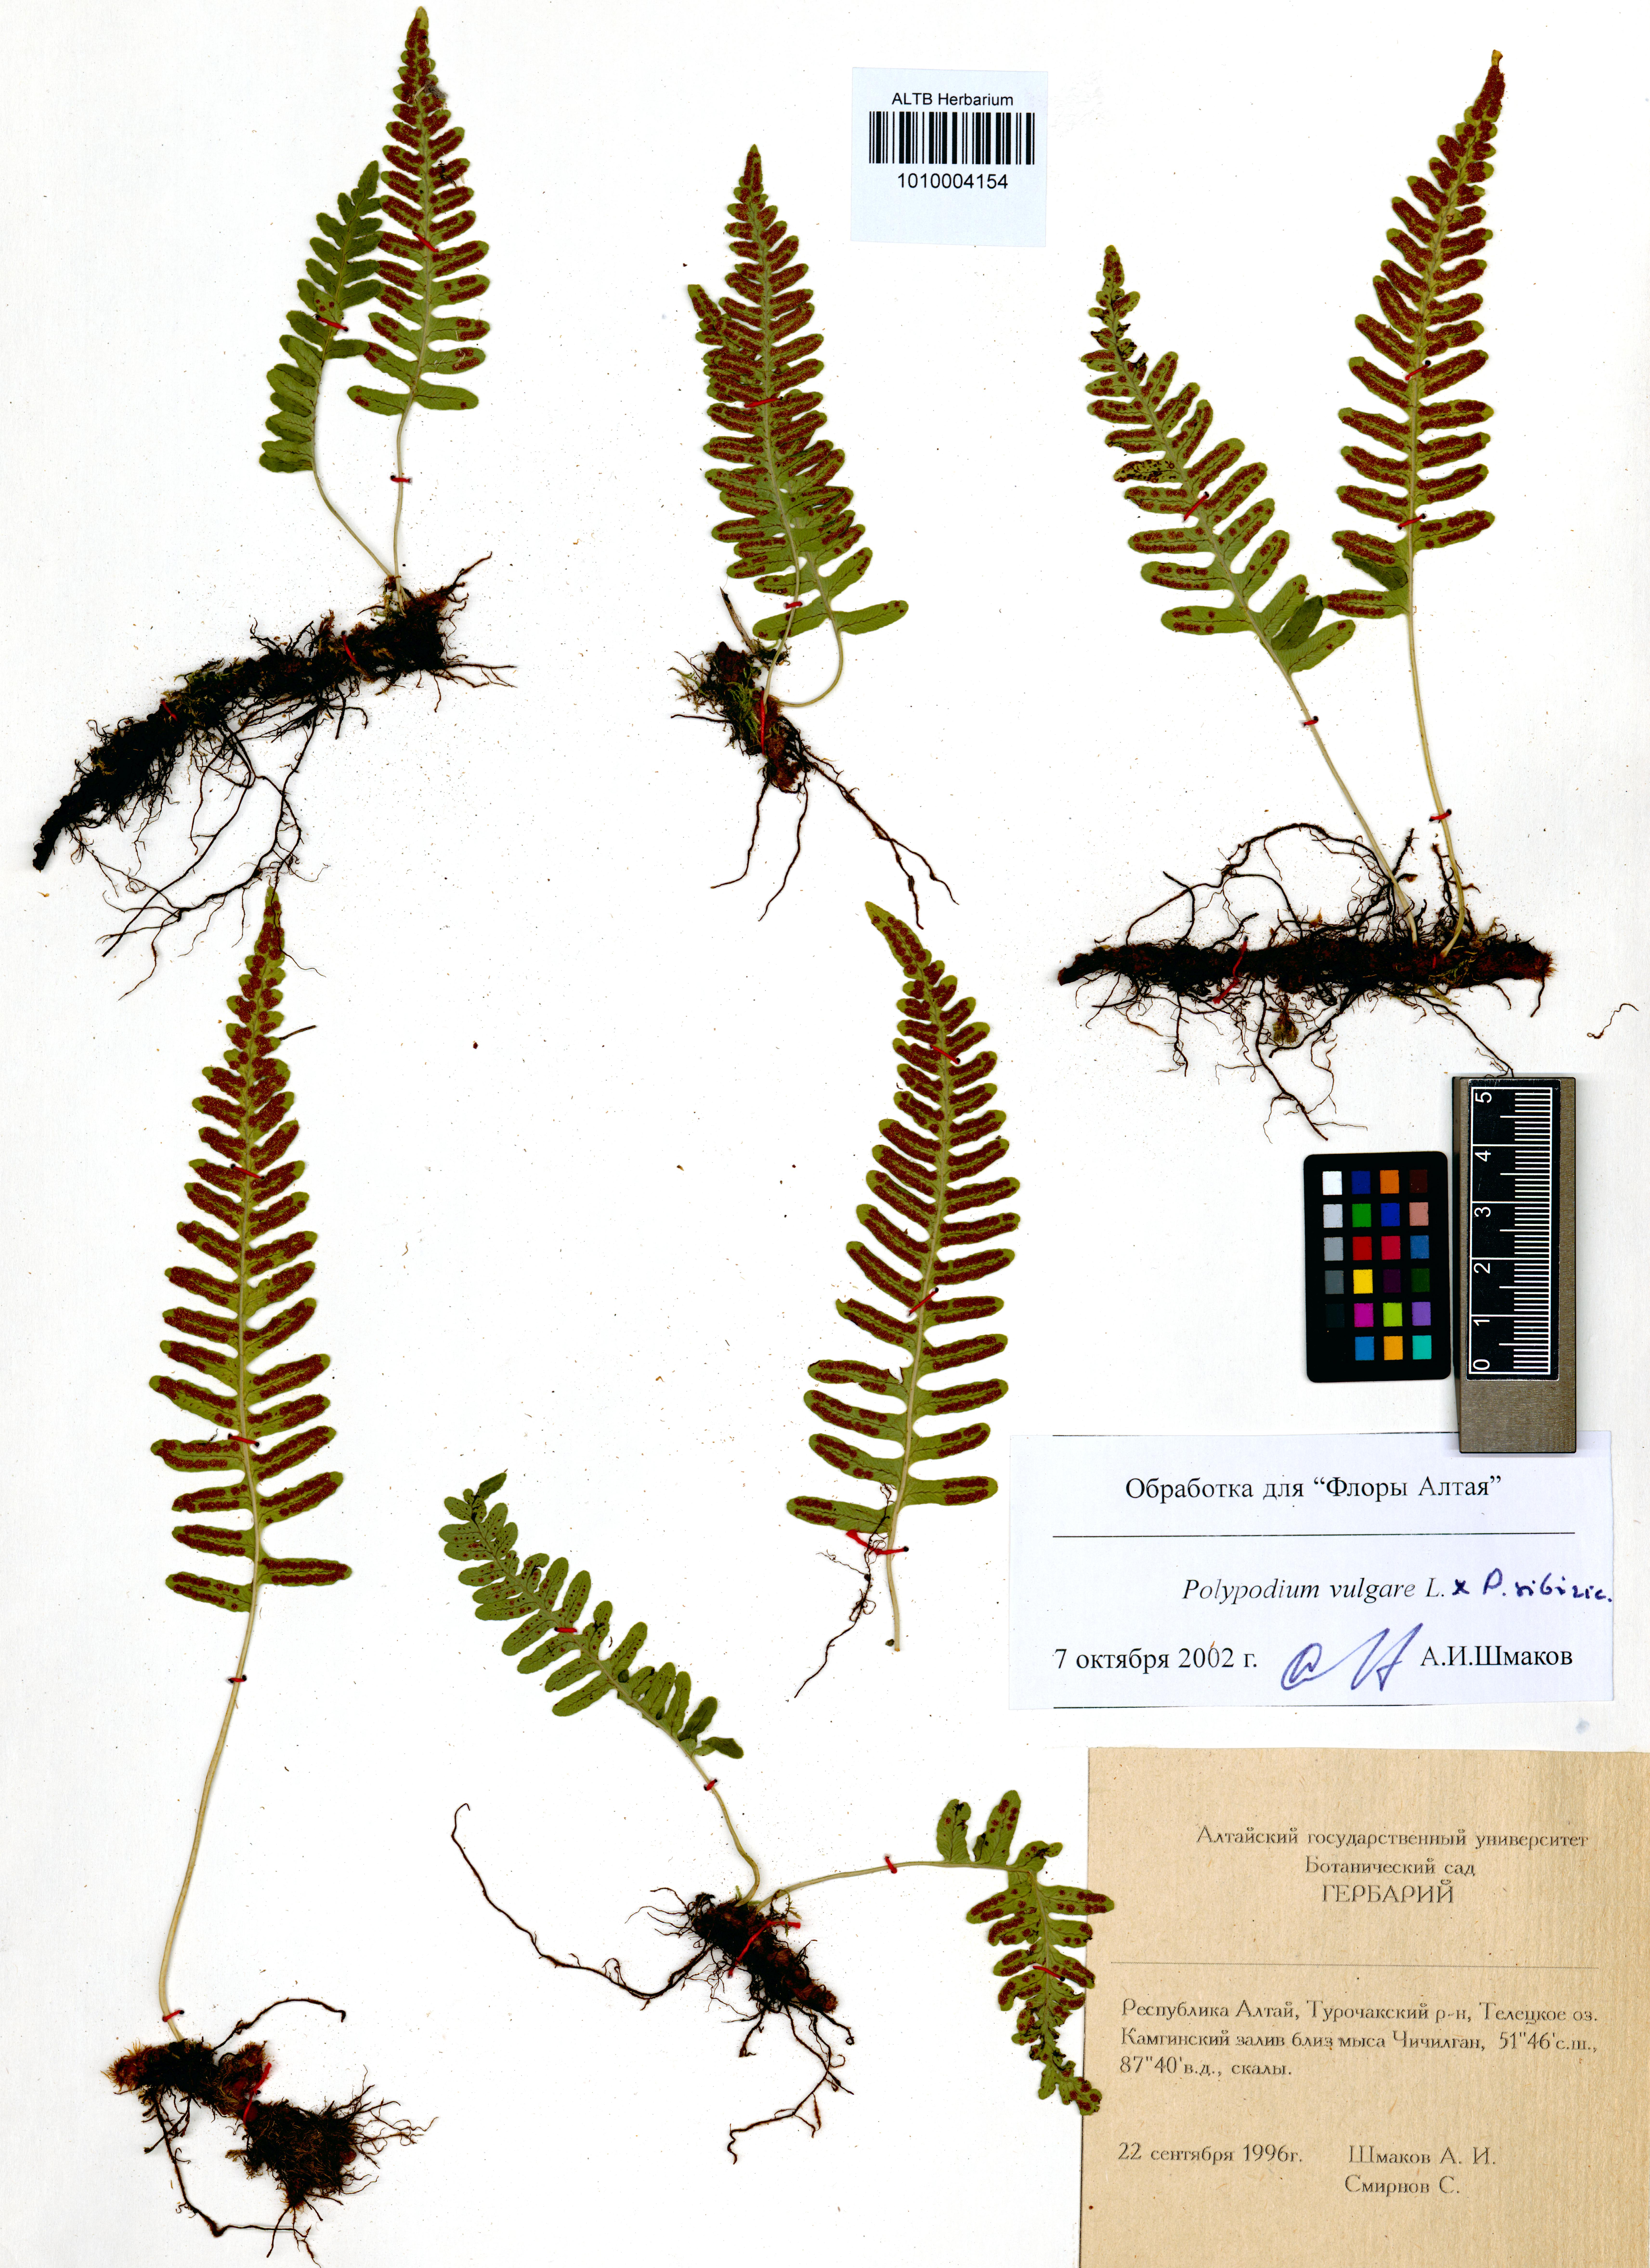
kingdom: Plantae
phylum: Tracheophyta
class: Polypodiopsida
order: Polypodiales
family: Polypodiaceae
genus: Polypodium
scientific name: Polypodium vulgare
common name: Common polypody
